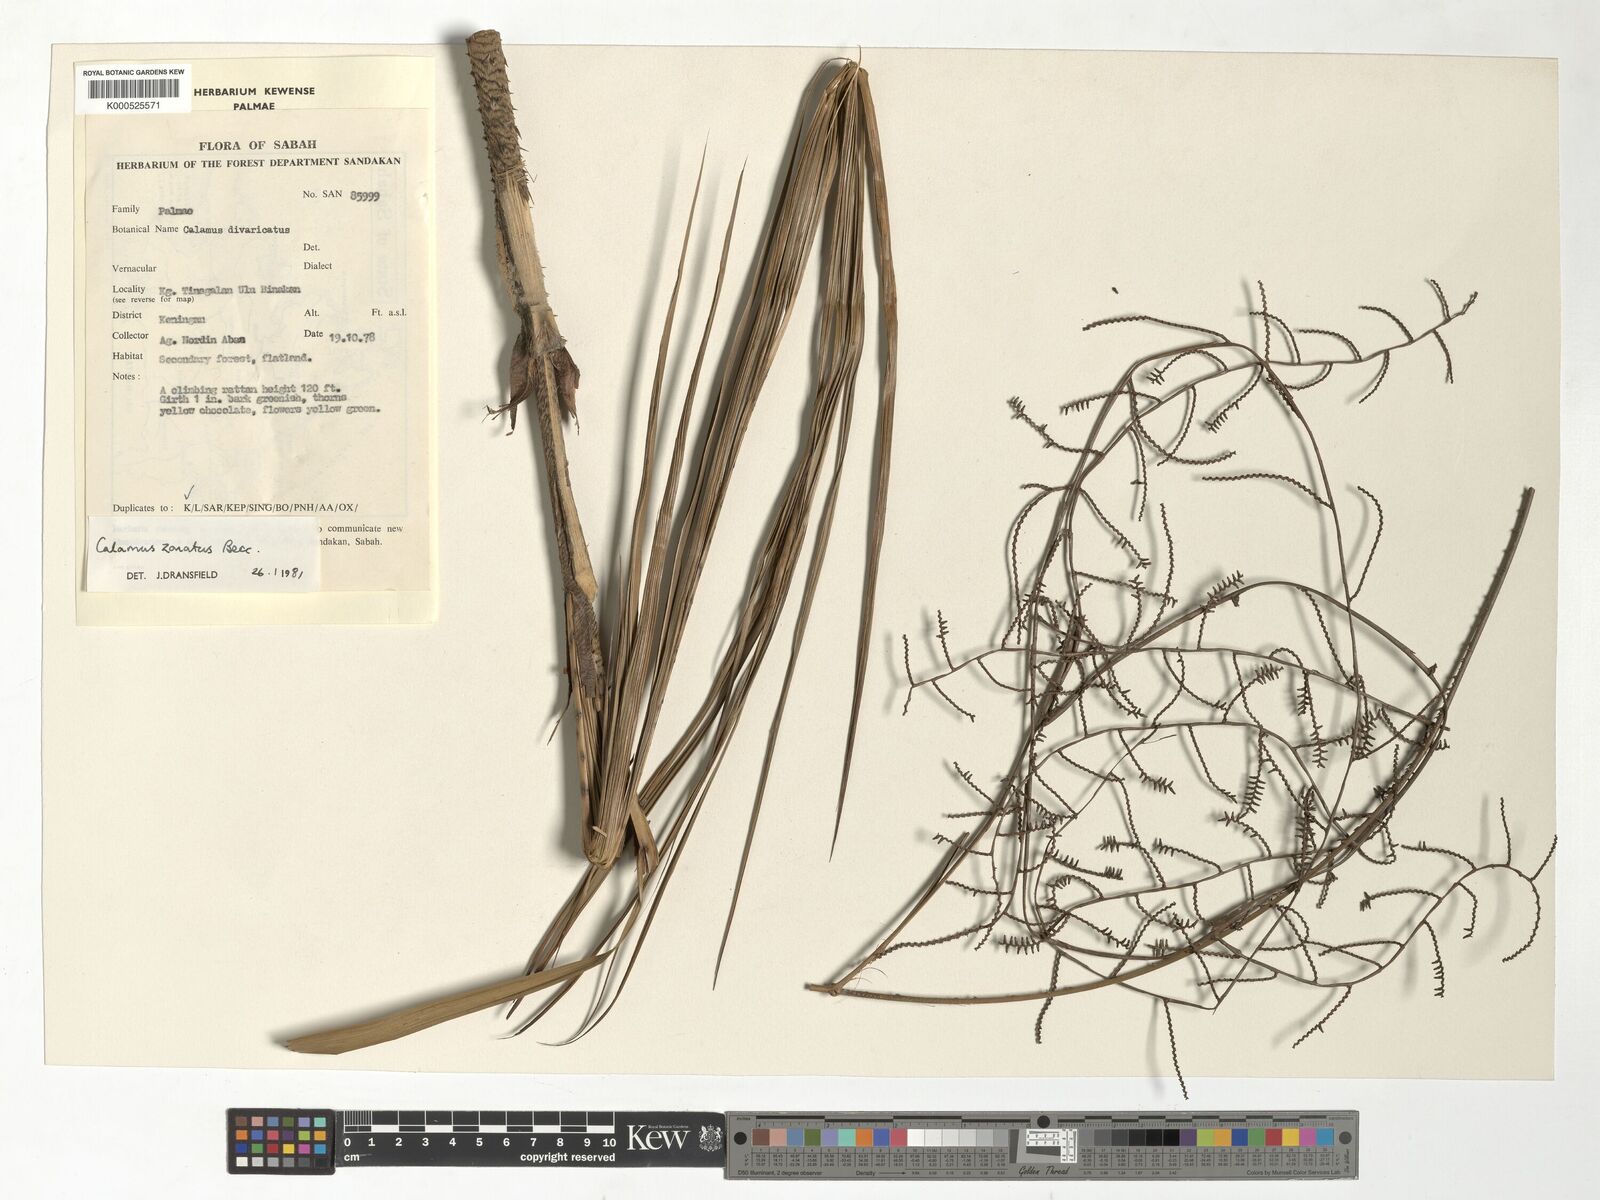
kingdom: Plantae
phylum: Tracheophyta
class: Liliopsida
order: Arecales
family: Arecaceae
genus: Calamus
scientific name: Calamus zonatus
